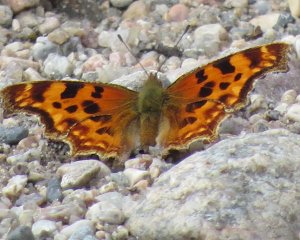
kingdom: Animalia
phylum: Arthropoda
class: Insecta
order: Lepidoptera
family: Nymphalidae
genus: Polygonia
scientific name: Polygonia faunus
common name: Green Comma
